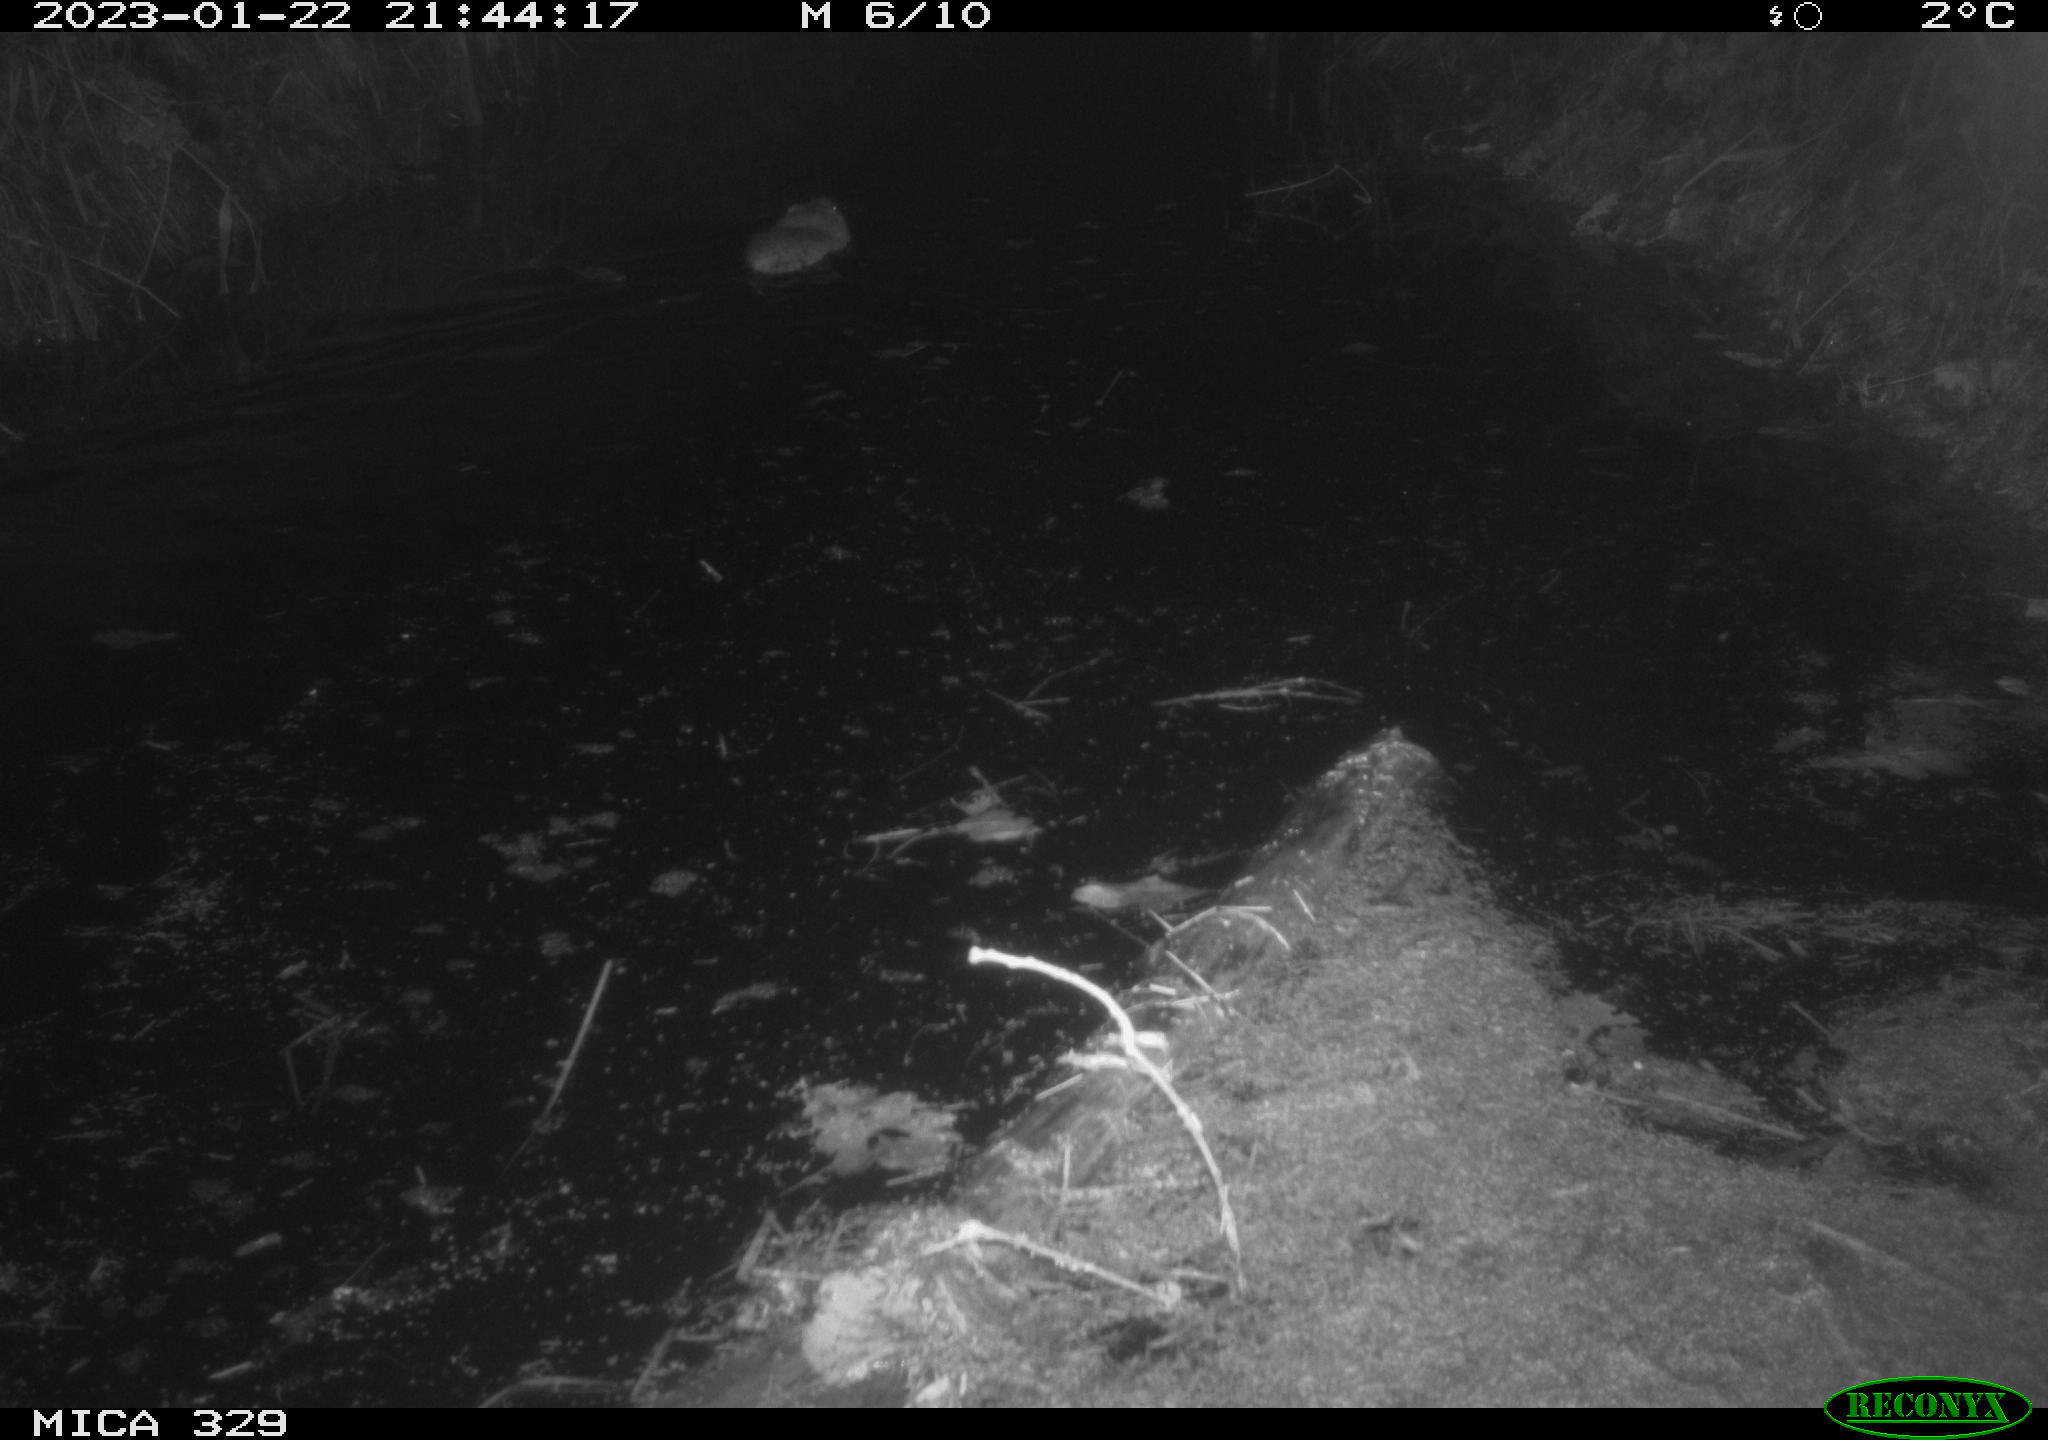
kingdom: Animalia
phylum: Chordata
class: Mammalia
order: Rodentia
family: Cricetidae
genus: Ondatra
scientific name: Ondatra zibethicus
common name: Muskrat
